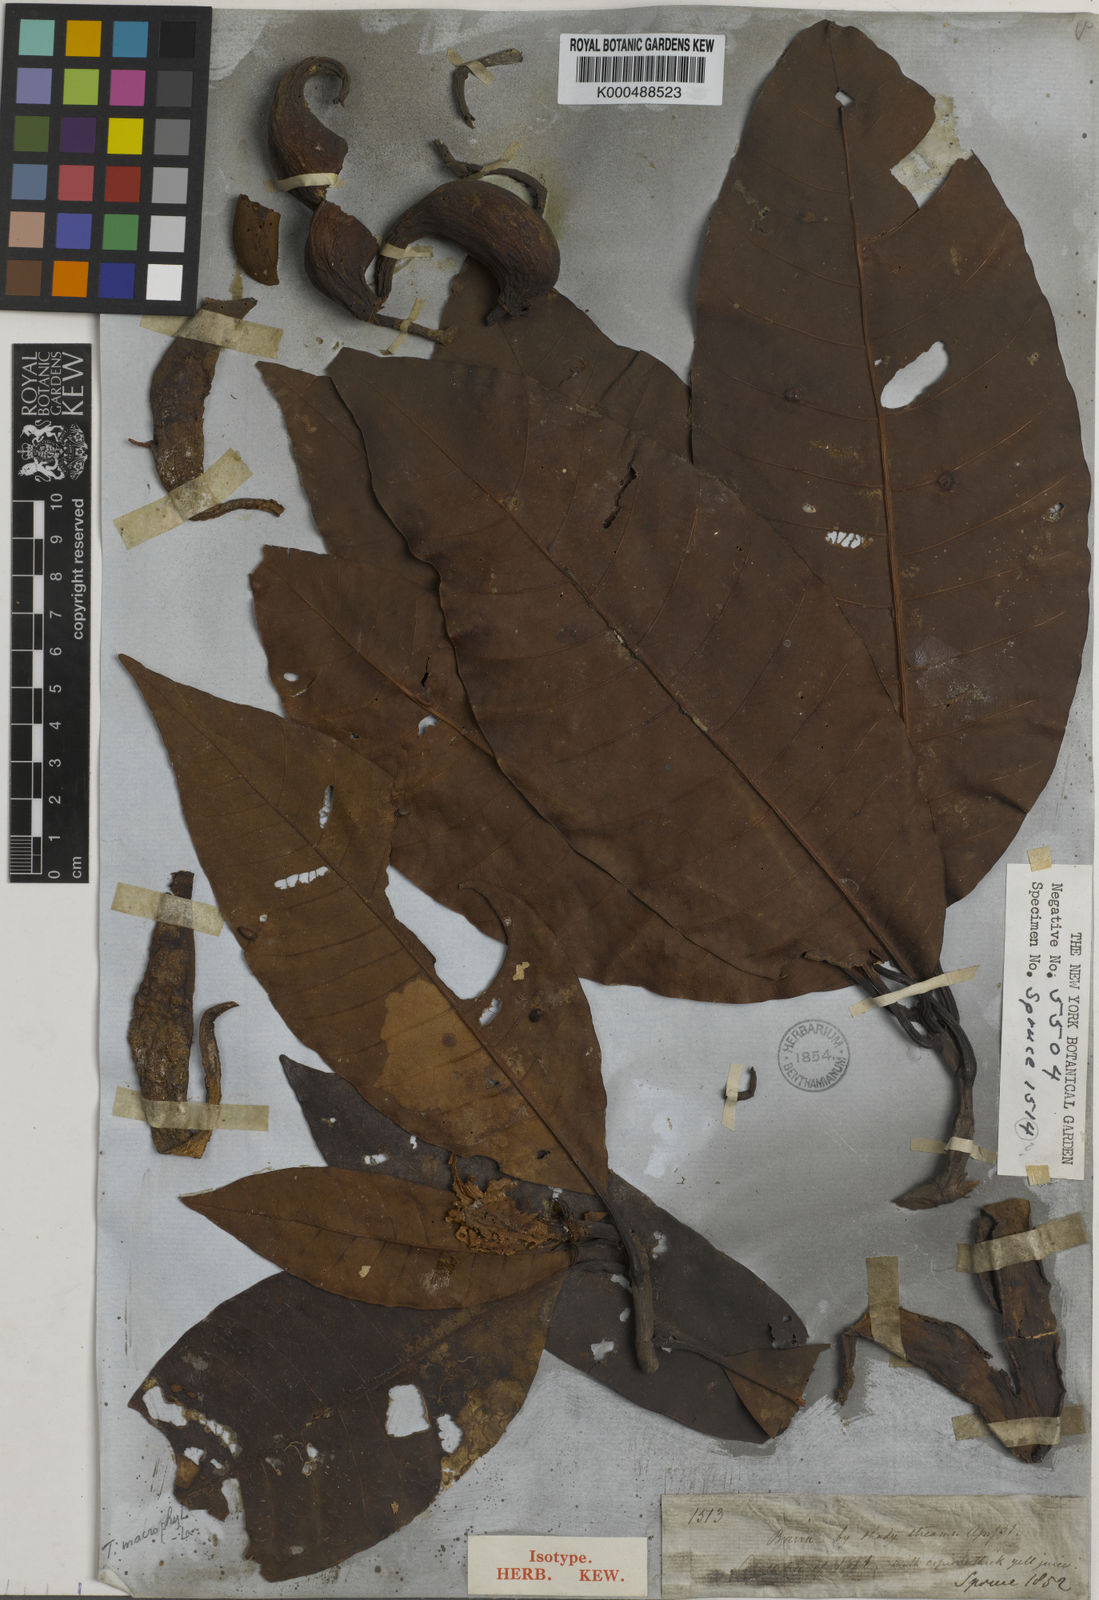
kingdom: Plantae
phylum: Tracheophyta
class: Magnoliopsida
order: Malpighiales
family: Clusiaceae
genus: Tovomita
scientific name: Tovomita macrophylla
